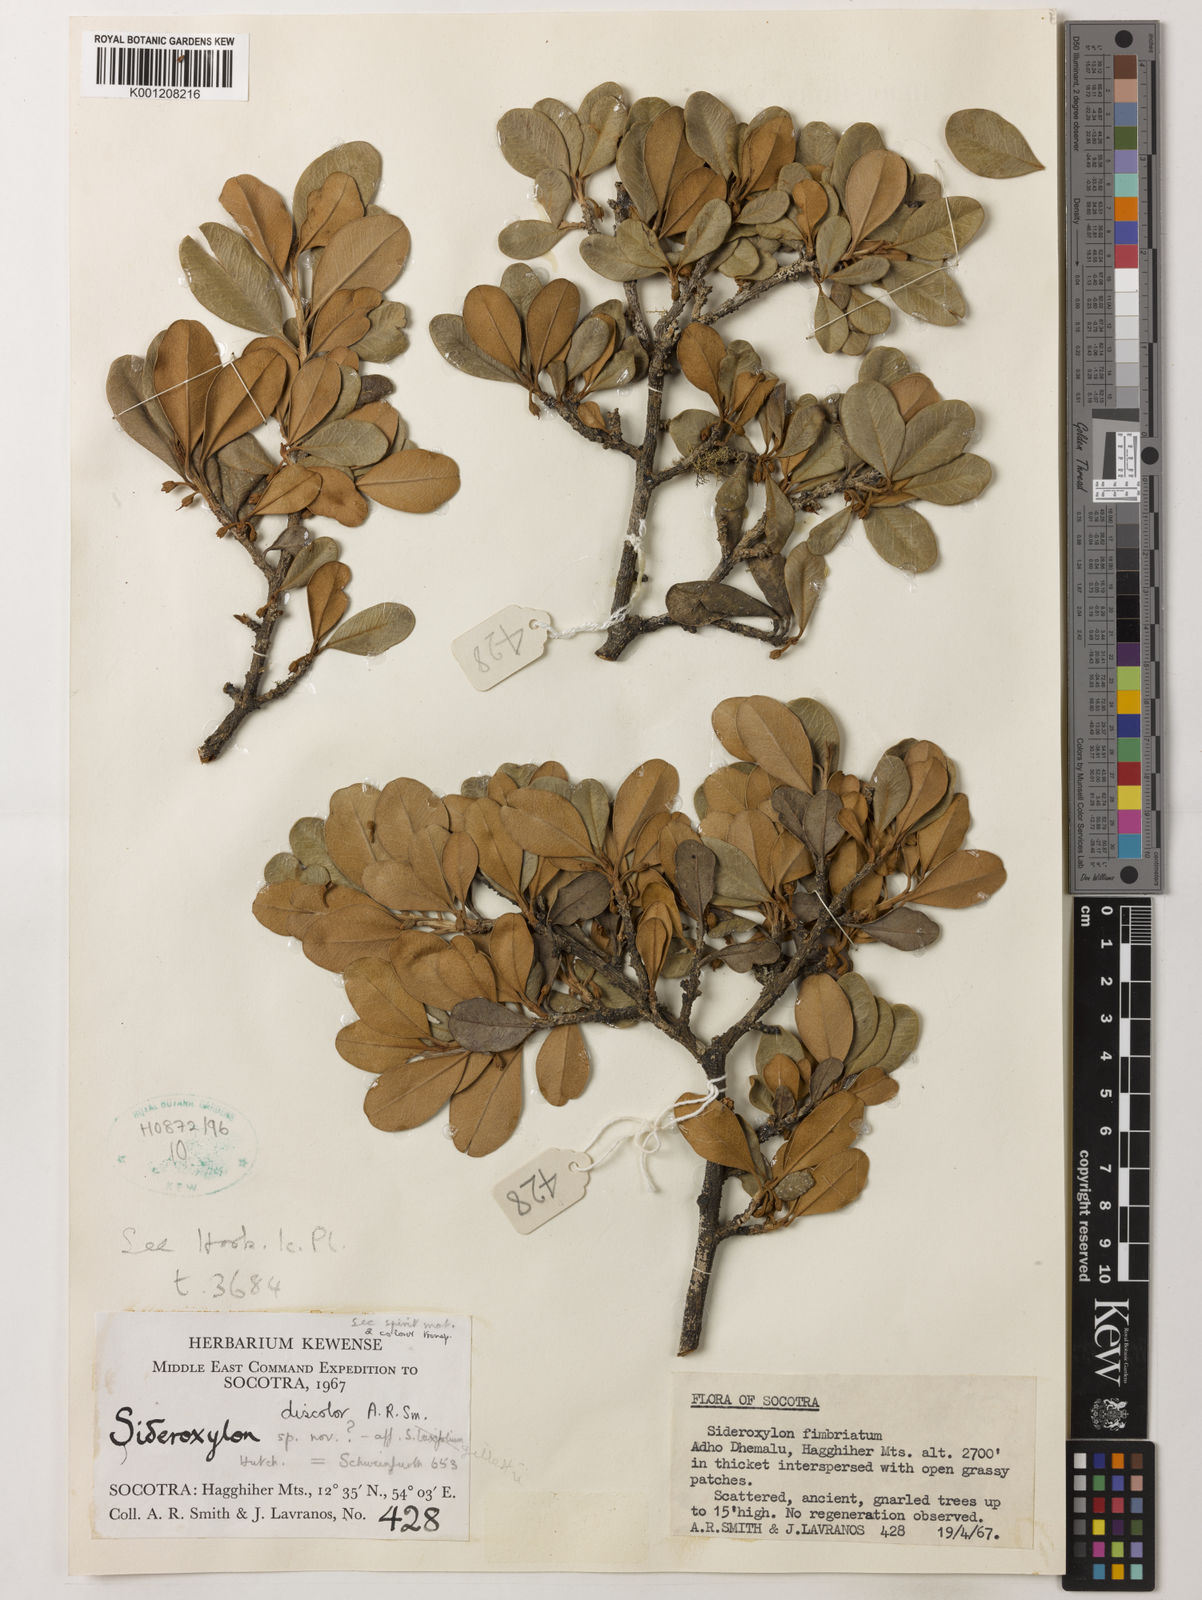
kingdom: Plantae
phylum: Tracheophyta
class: Magnoliopsida
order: Ericales
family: Sapotaceae
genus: Spiniluma
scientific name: Spiniluma discolor
